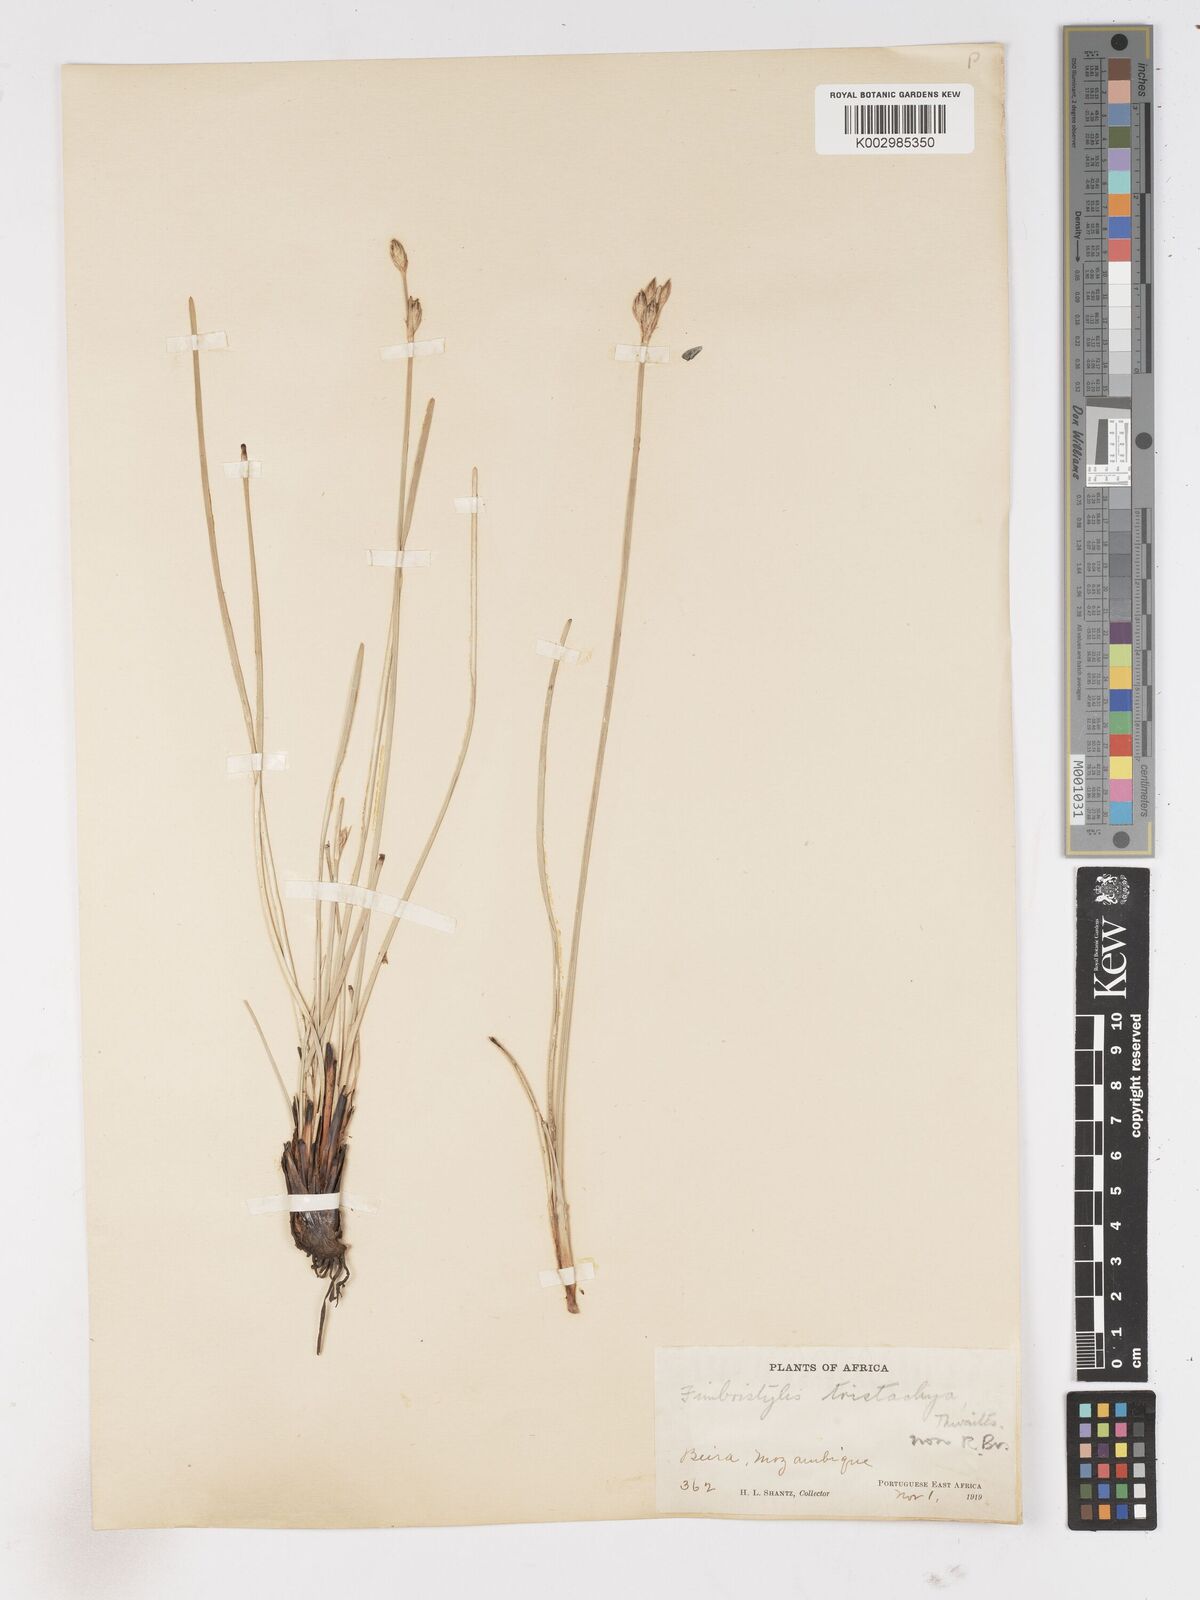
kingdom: Plantae
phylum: Tracheophyta
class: Liliopsida
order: Poales
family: Cyperaceae
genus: Abildgaardia
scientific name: Abildgaardia triflora
